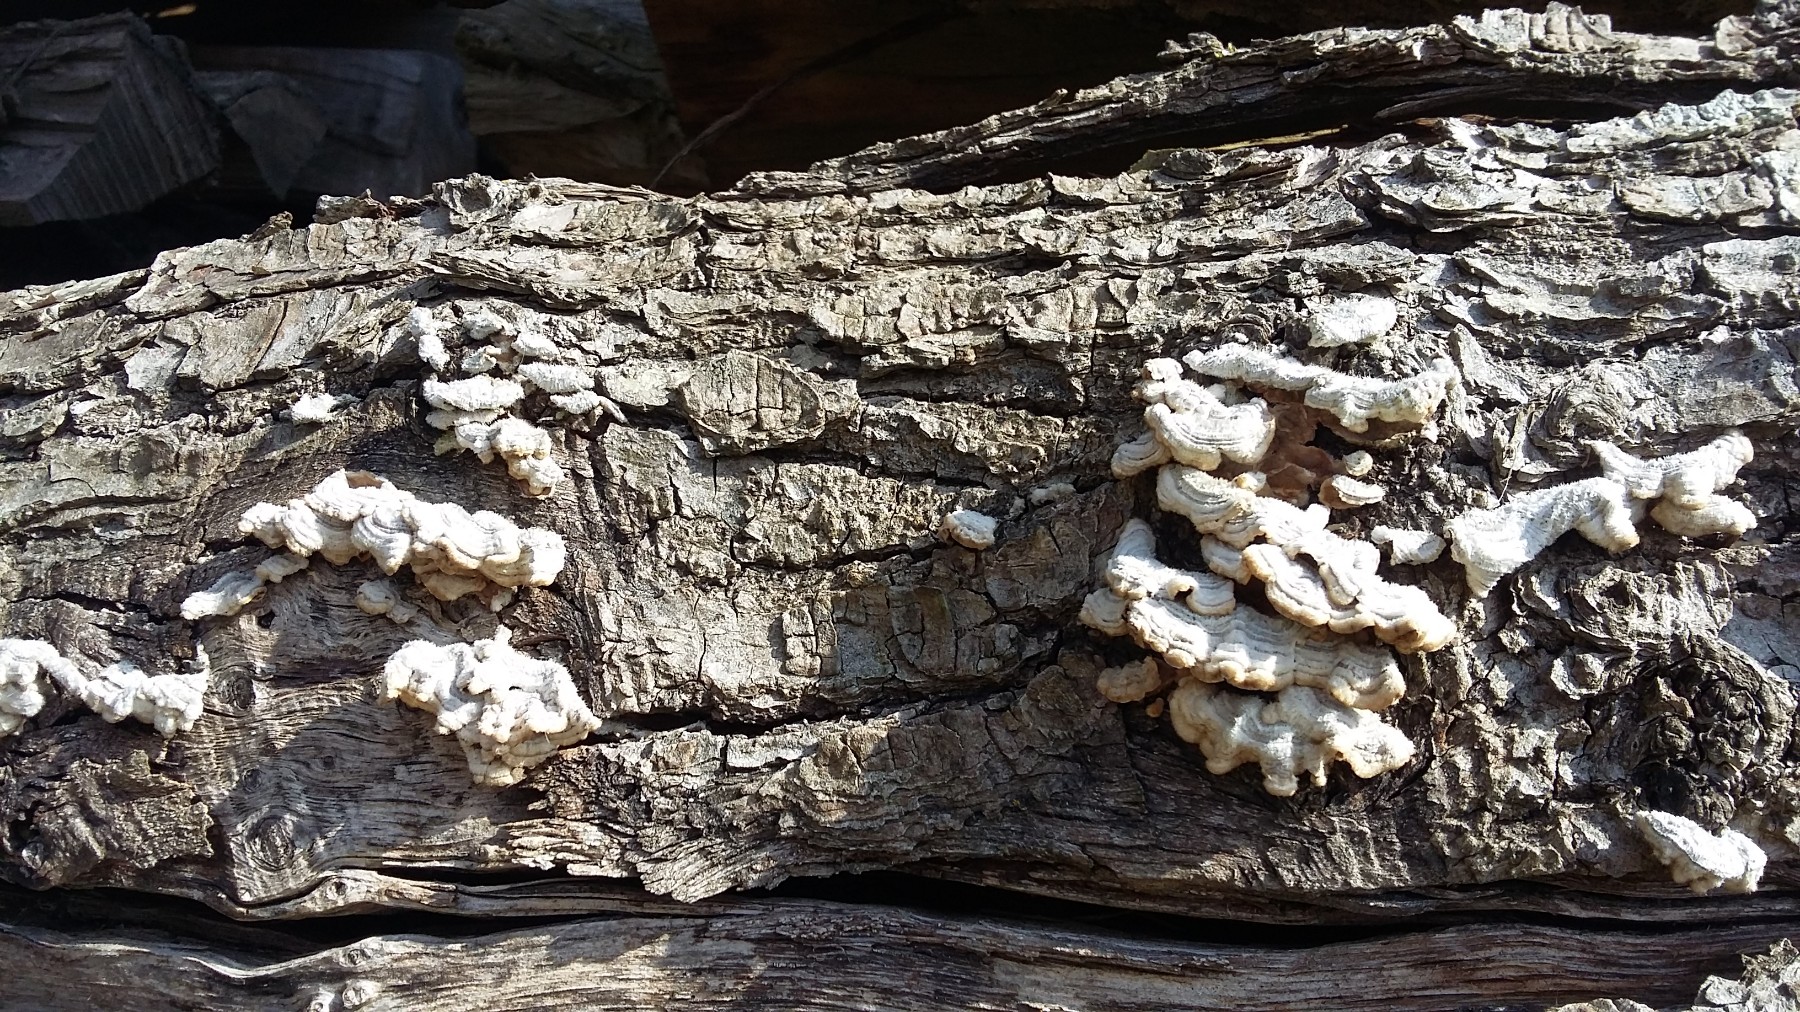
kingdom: Fungi
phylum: Basidiomycota
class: Agaricomycetes
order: Russulales
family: Stereaceae
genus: Stereum
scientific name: Stereum hirsutum
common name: håret lædersvamp
